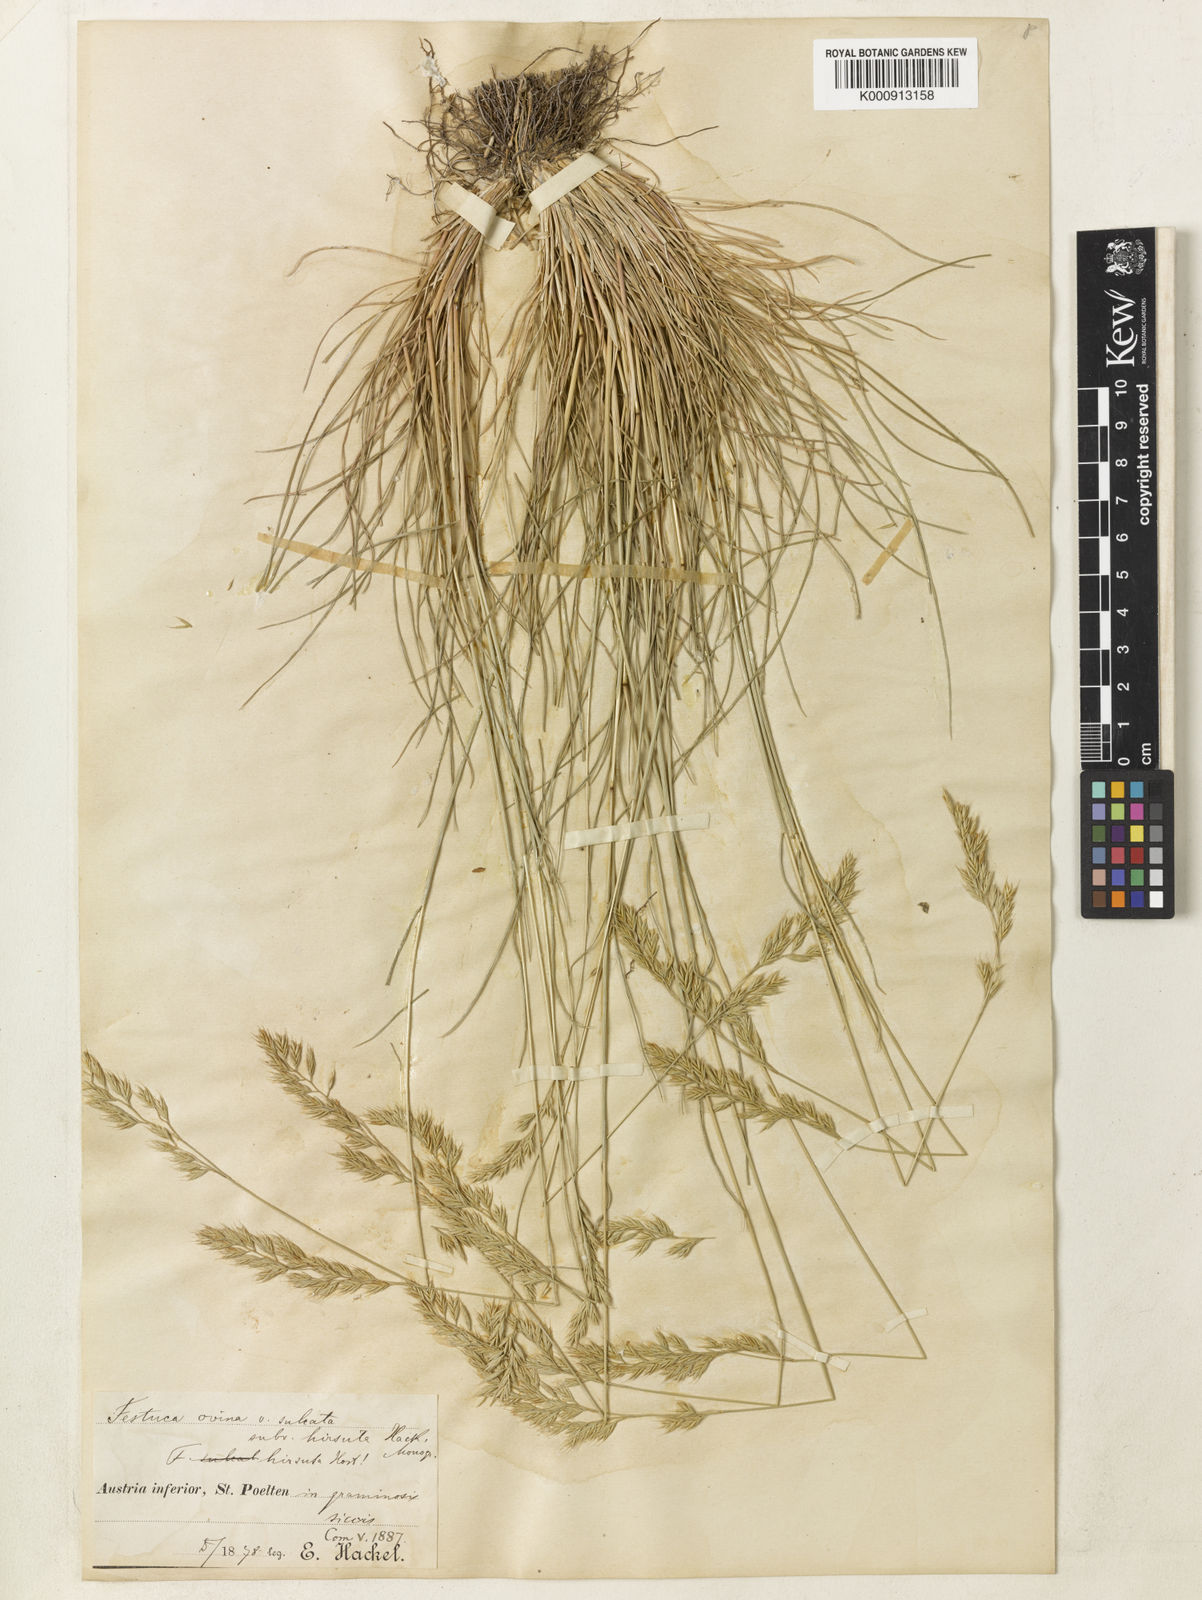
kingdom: Plantae
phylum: Tracheophyta
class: Liliopsida
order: Poales
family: Poaceae
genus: Festuca
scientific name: Festuca rupicola
